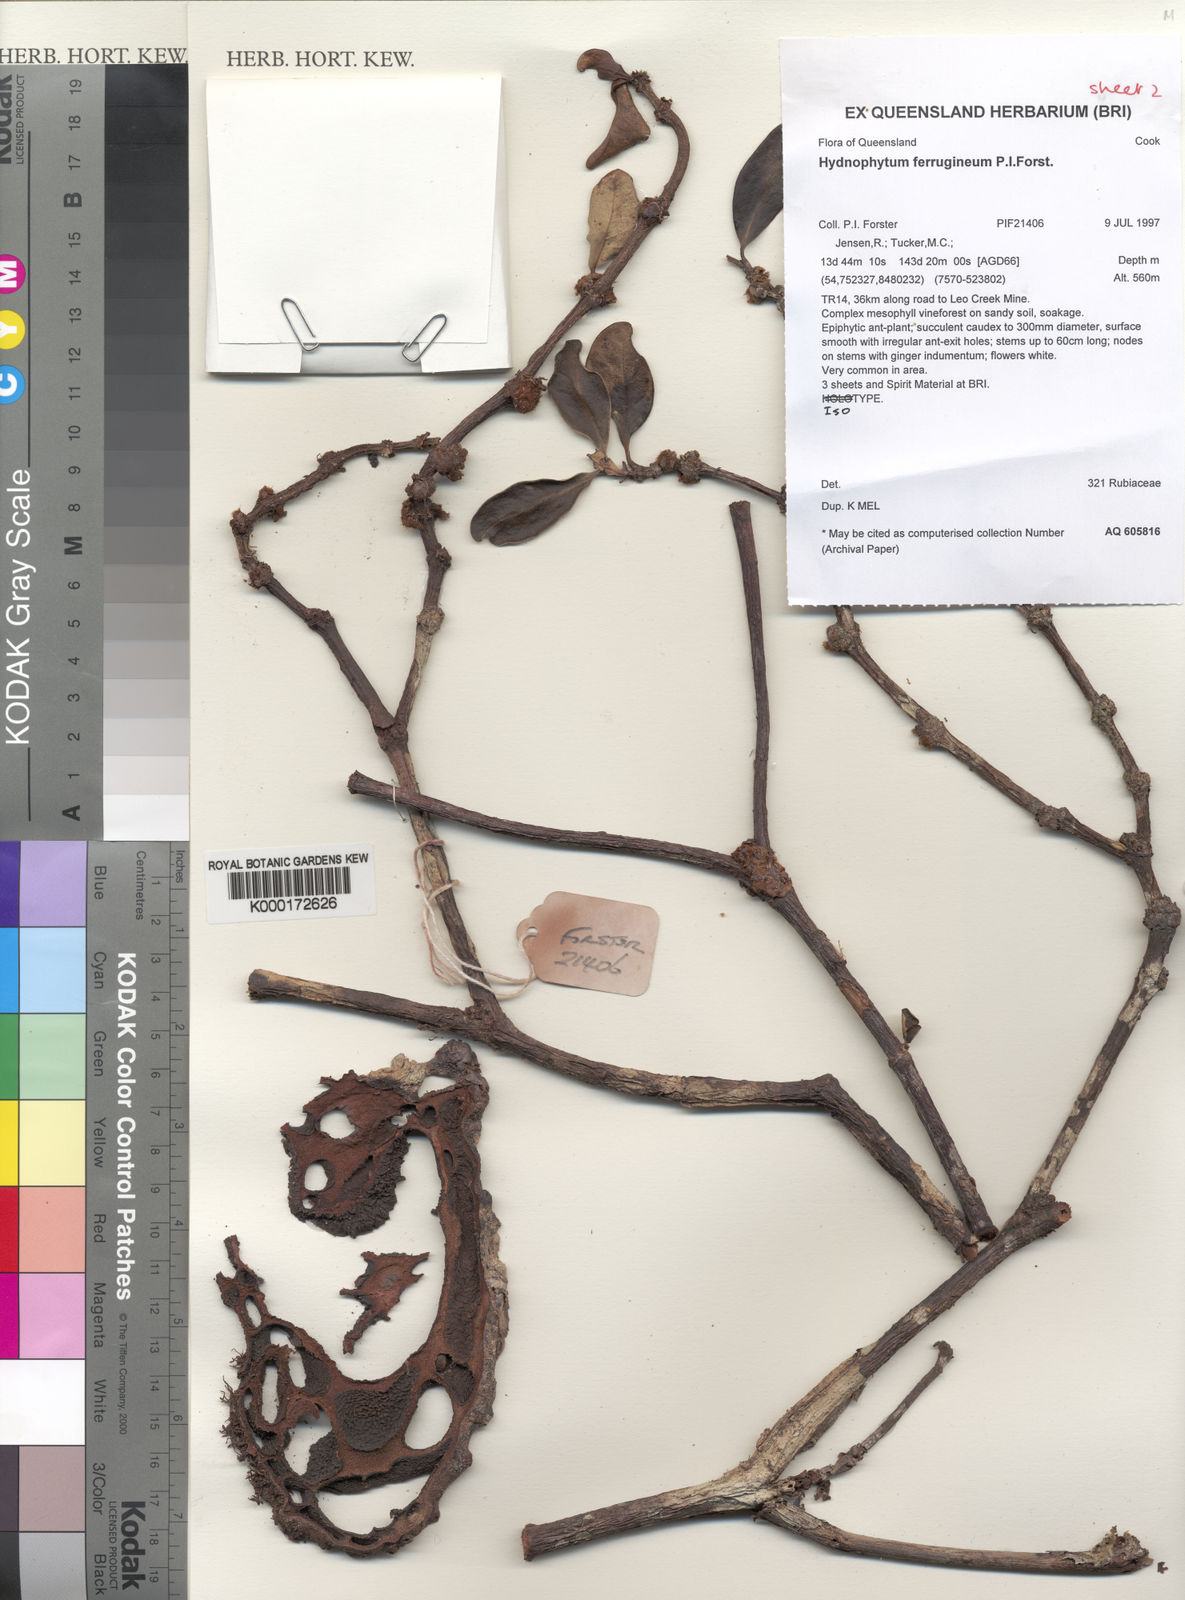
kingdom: Plantae
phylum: Tracheophyta
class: Magnoliopsida
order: Gentianales
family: Rubiaceae
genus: Hydnophytum
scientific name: Hydnophytum ferrugineum
